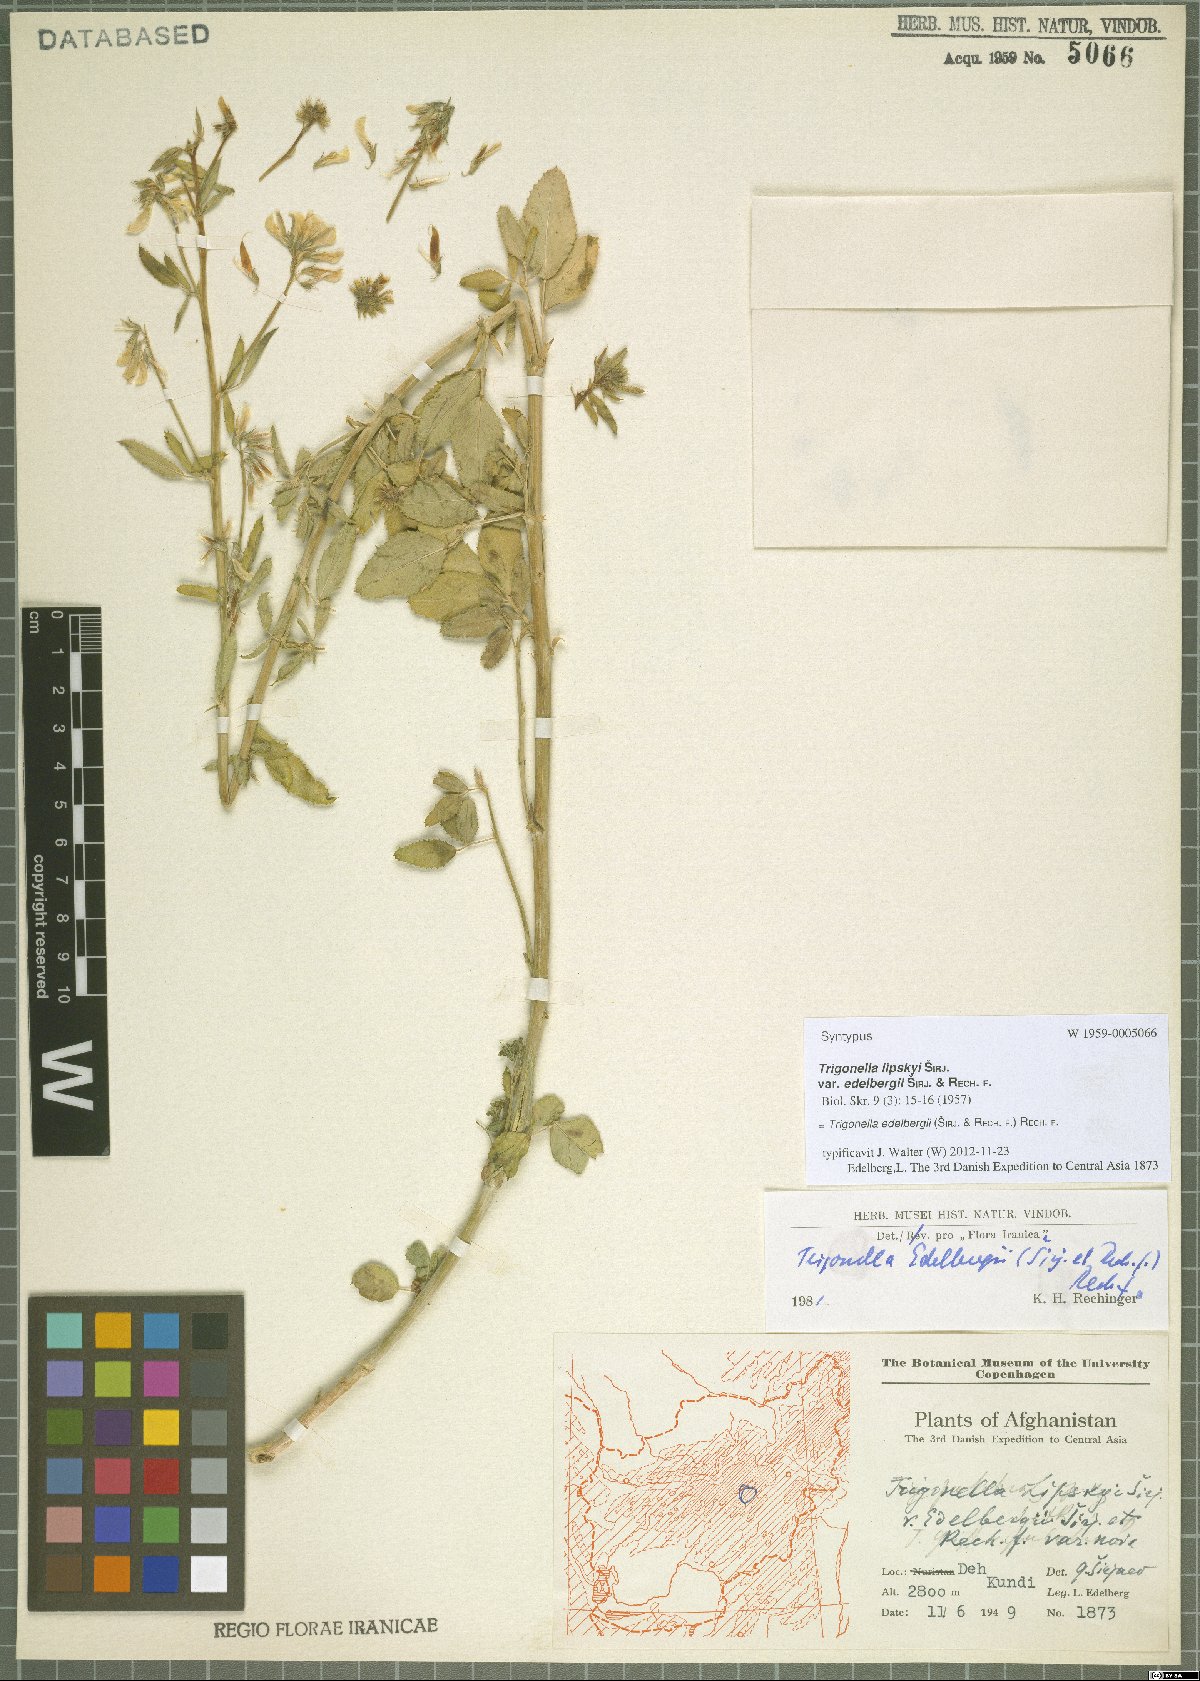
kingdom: Plantae
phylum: Tracheophyta
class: Magnoliopsida
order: Fabales
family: Fabaceae
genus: Trigonella
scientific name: Trigonella edelbergii
